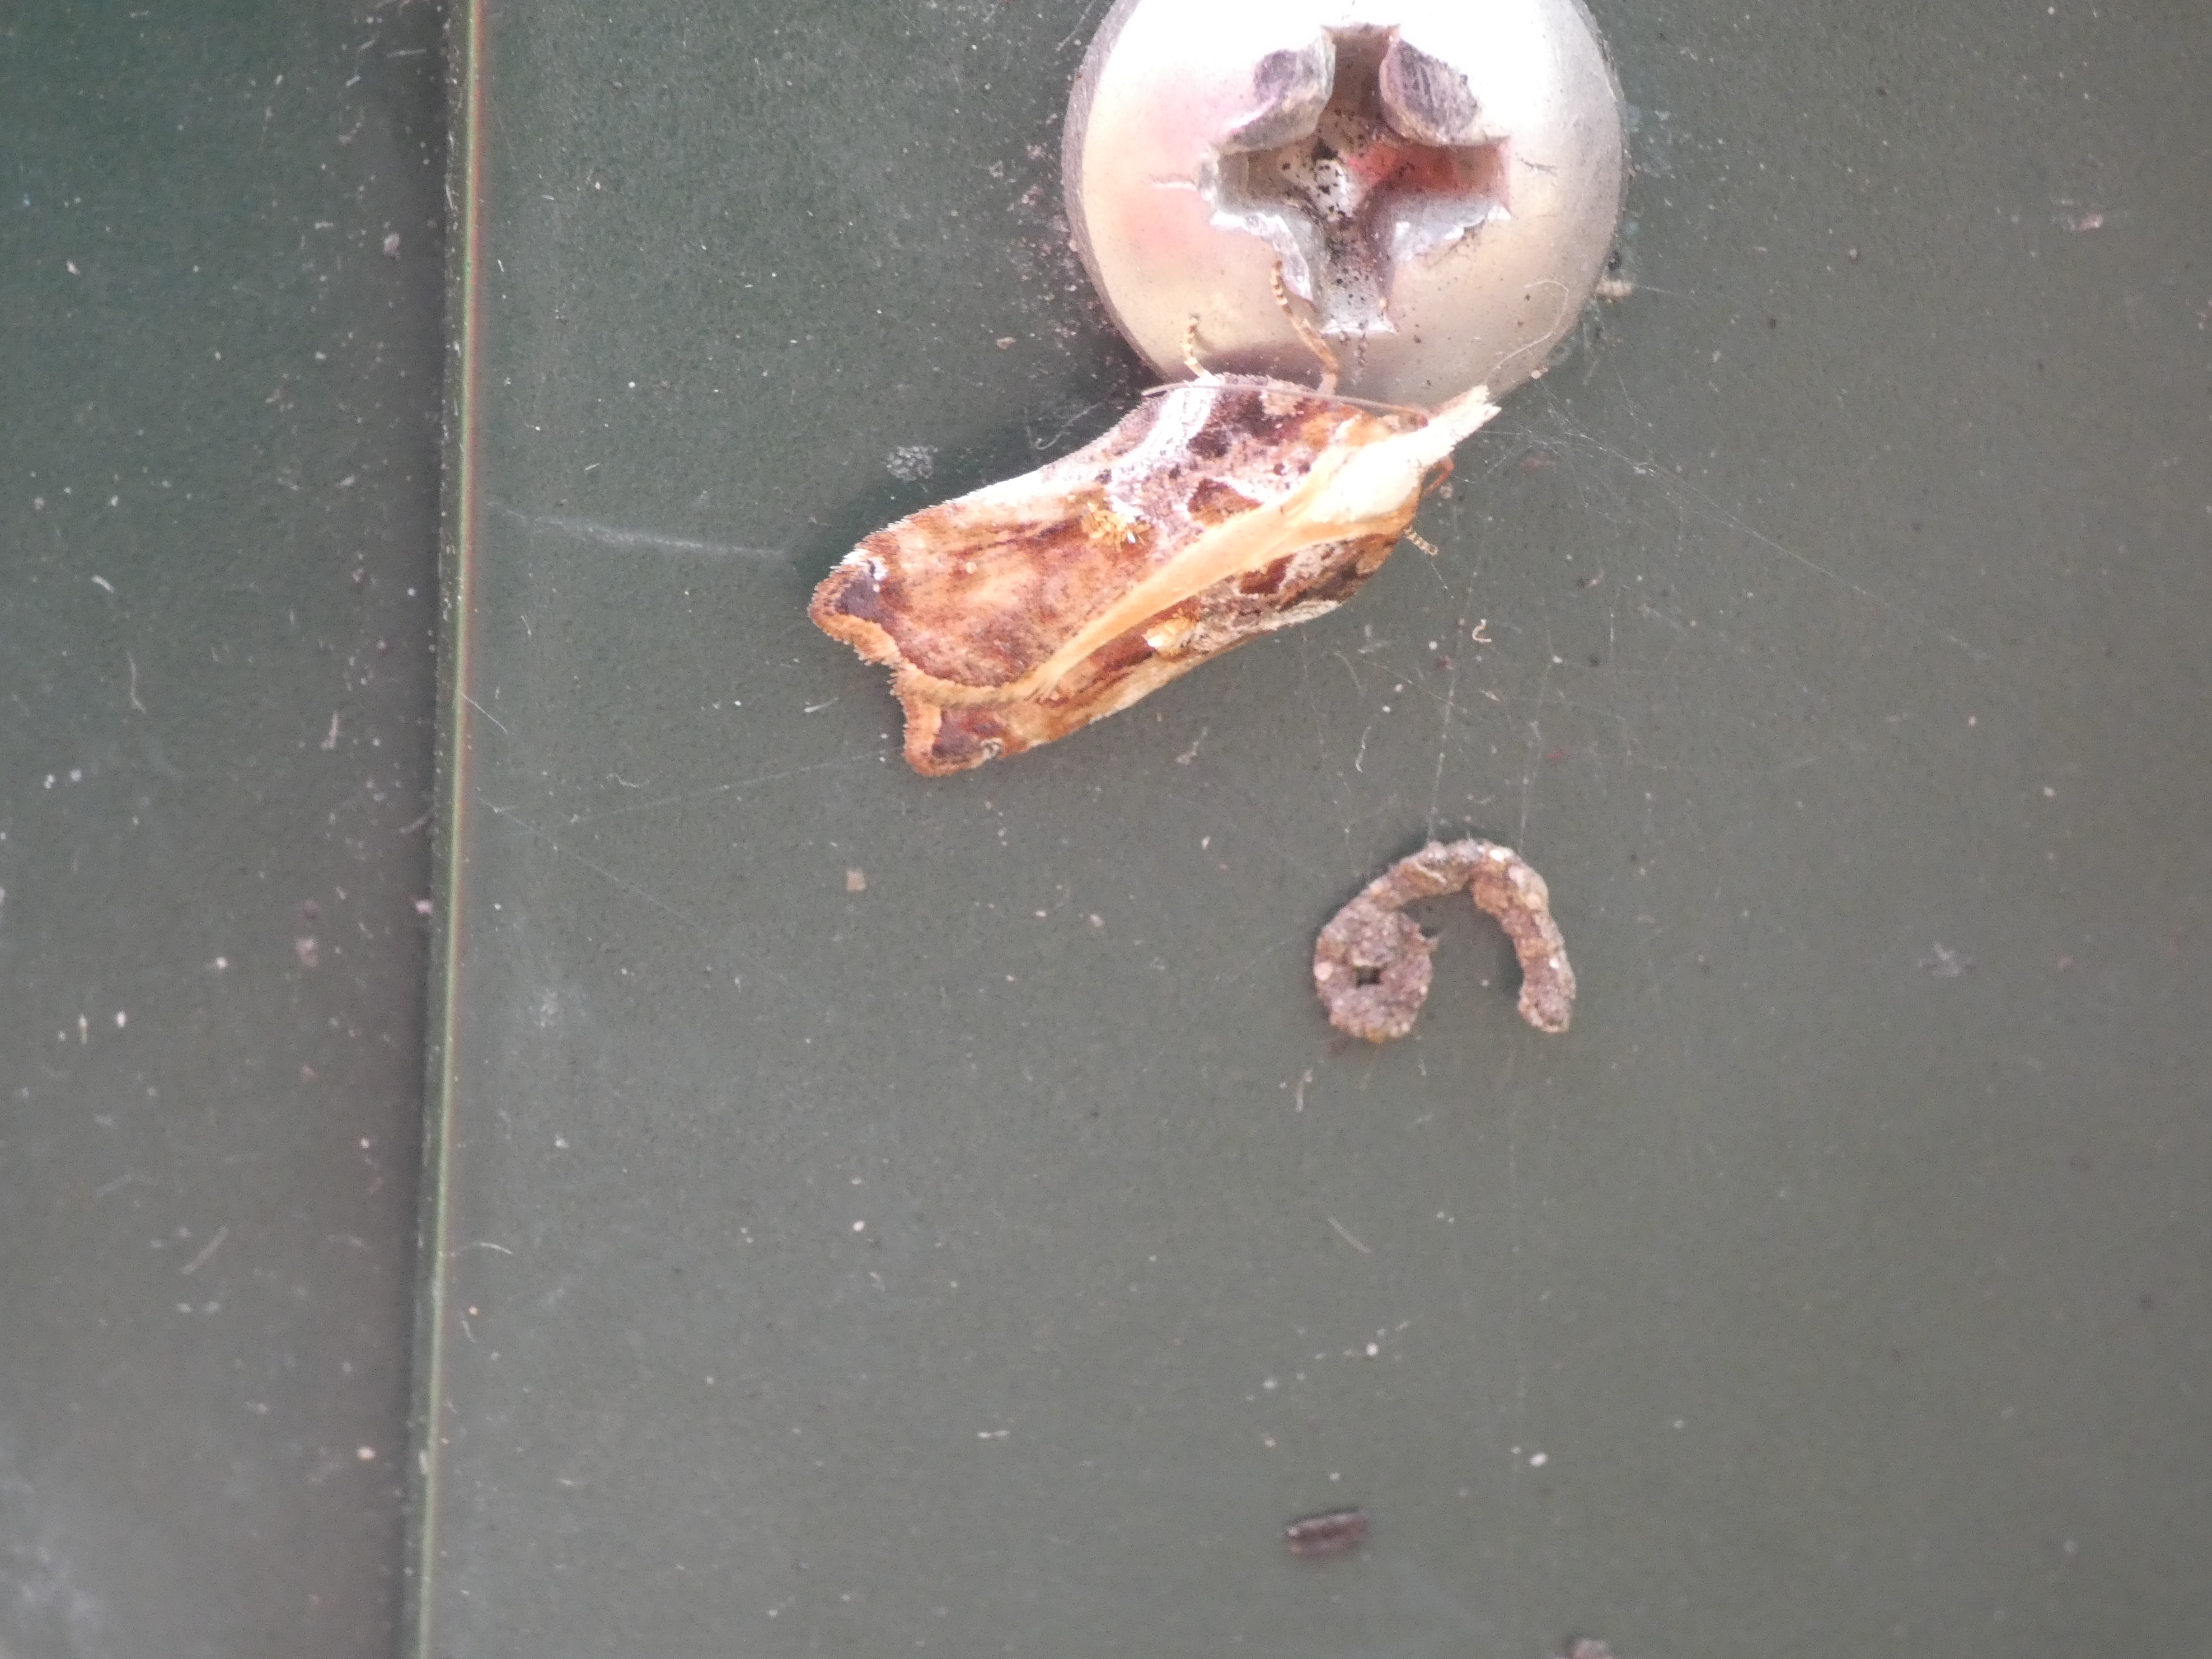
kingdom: Animalia
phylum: Arthropoda
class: Insecta
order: Lepidoptera
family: Tortricidae
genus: Acleris
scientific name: Acleris cristana
